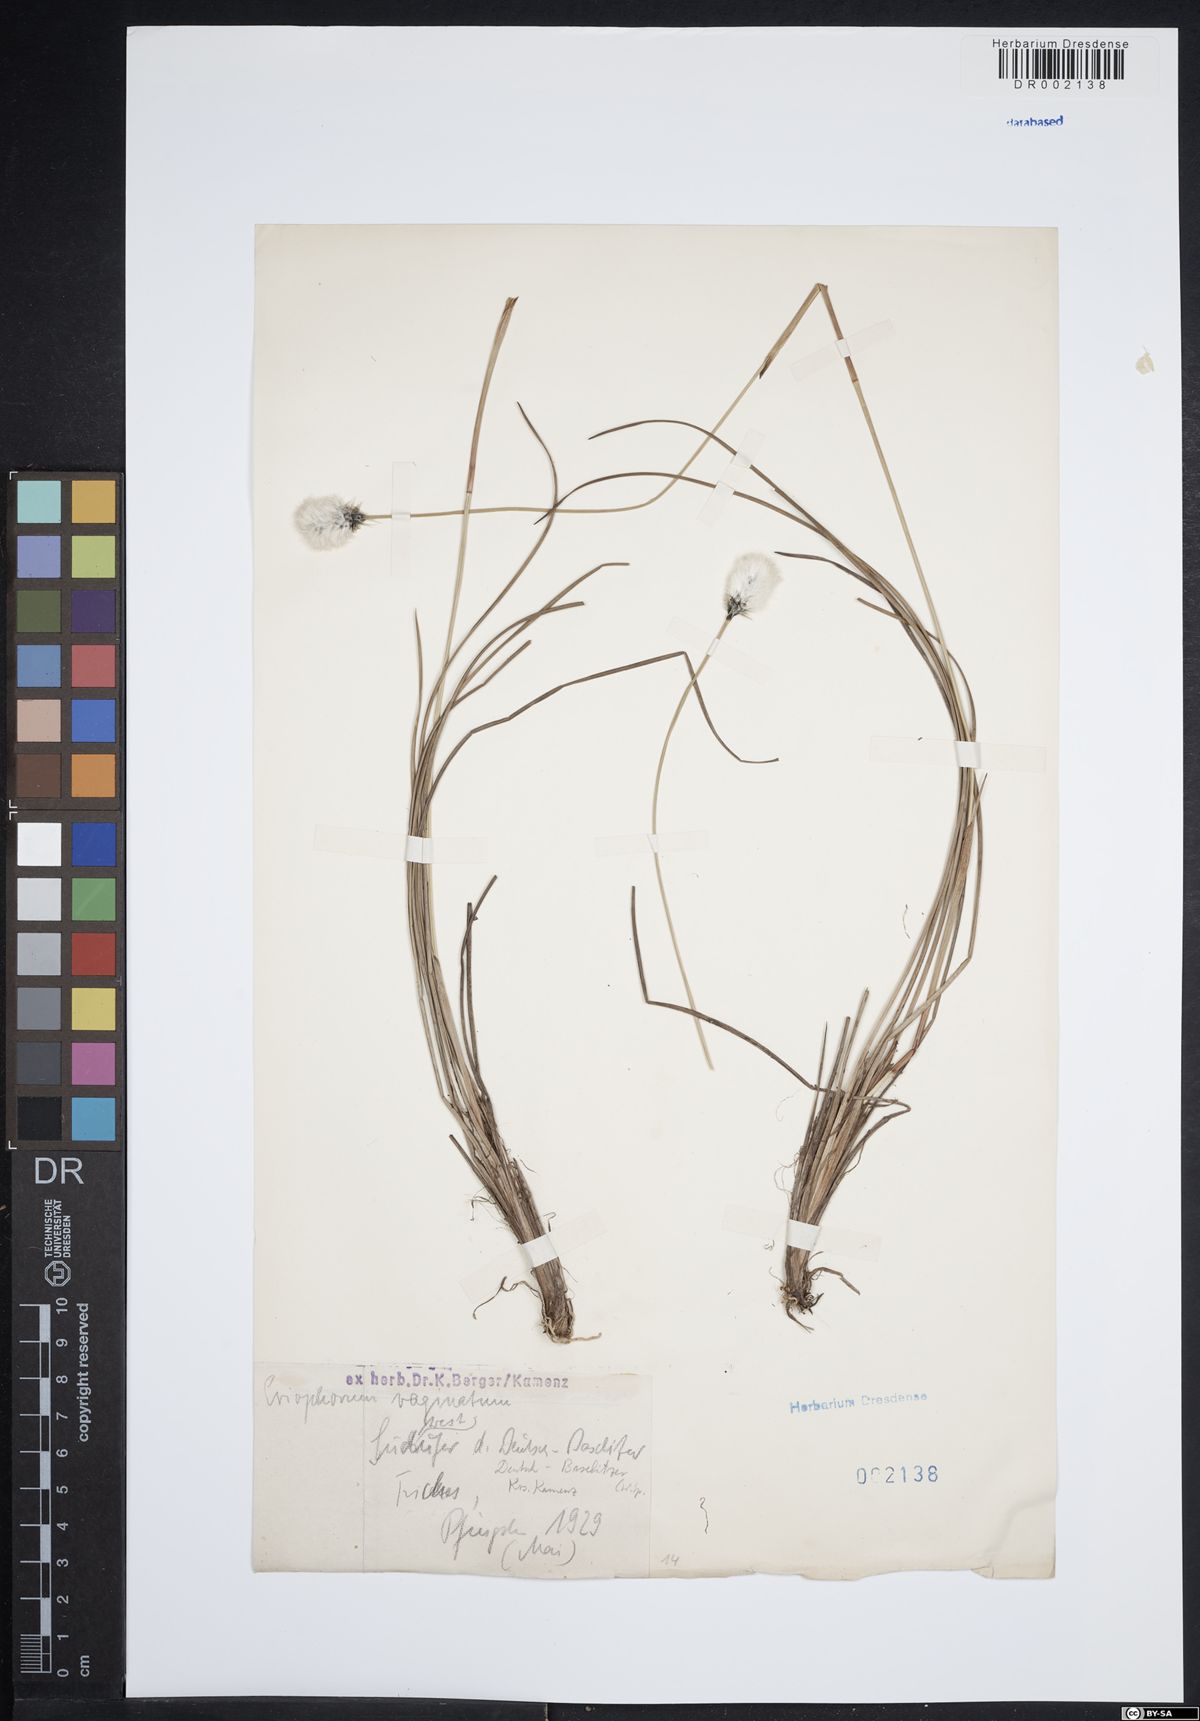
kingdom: Plantae
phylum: Tracheophyta
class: Liliopsida
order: Poales
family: Cyperaceae
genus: Eriophorum
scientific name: Eriophorum vaginatum
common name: Hare's-tail cottongrass
